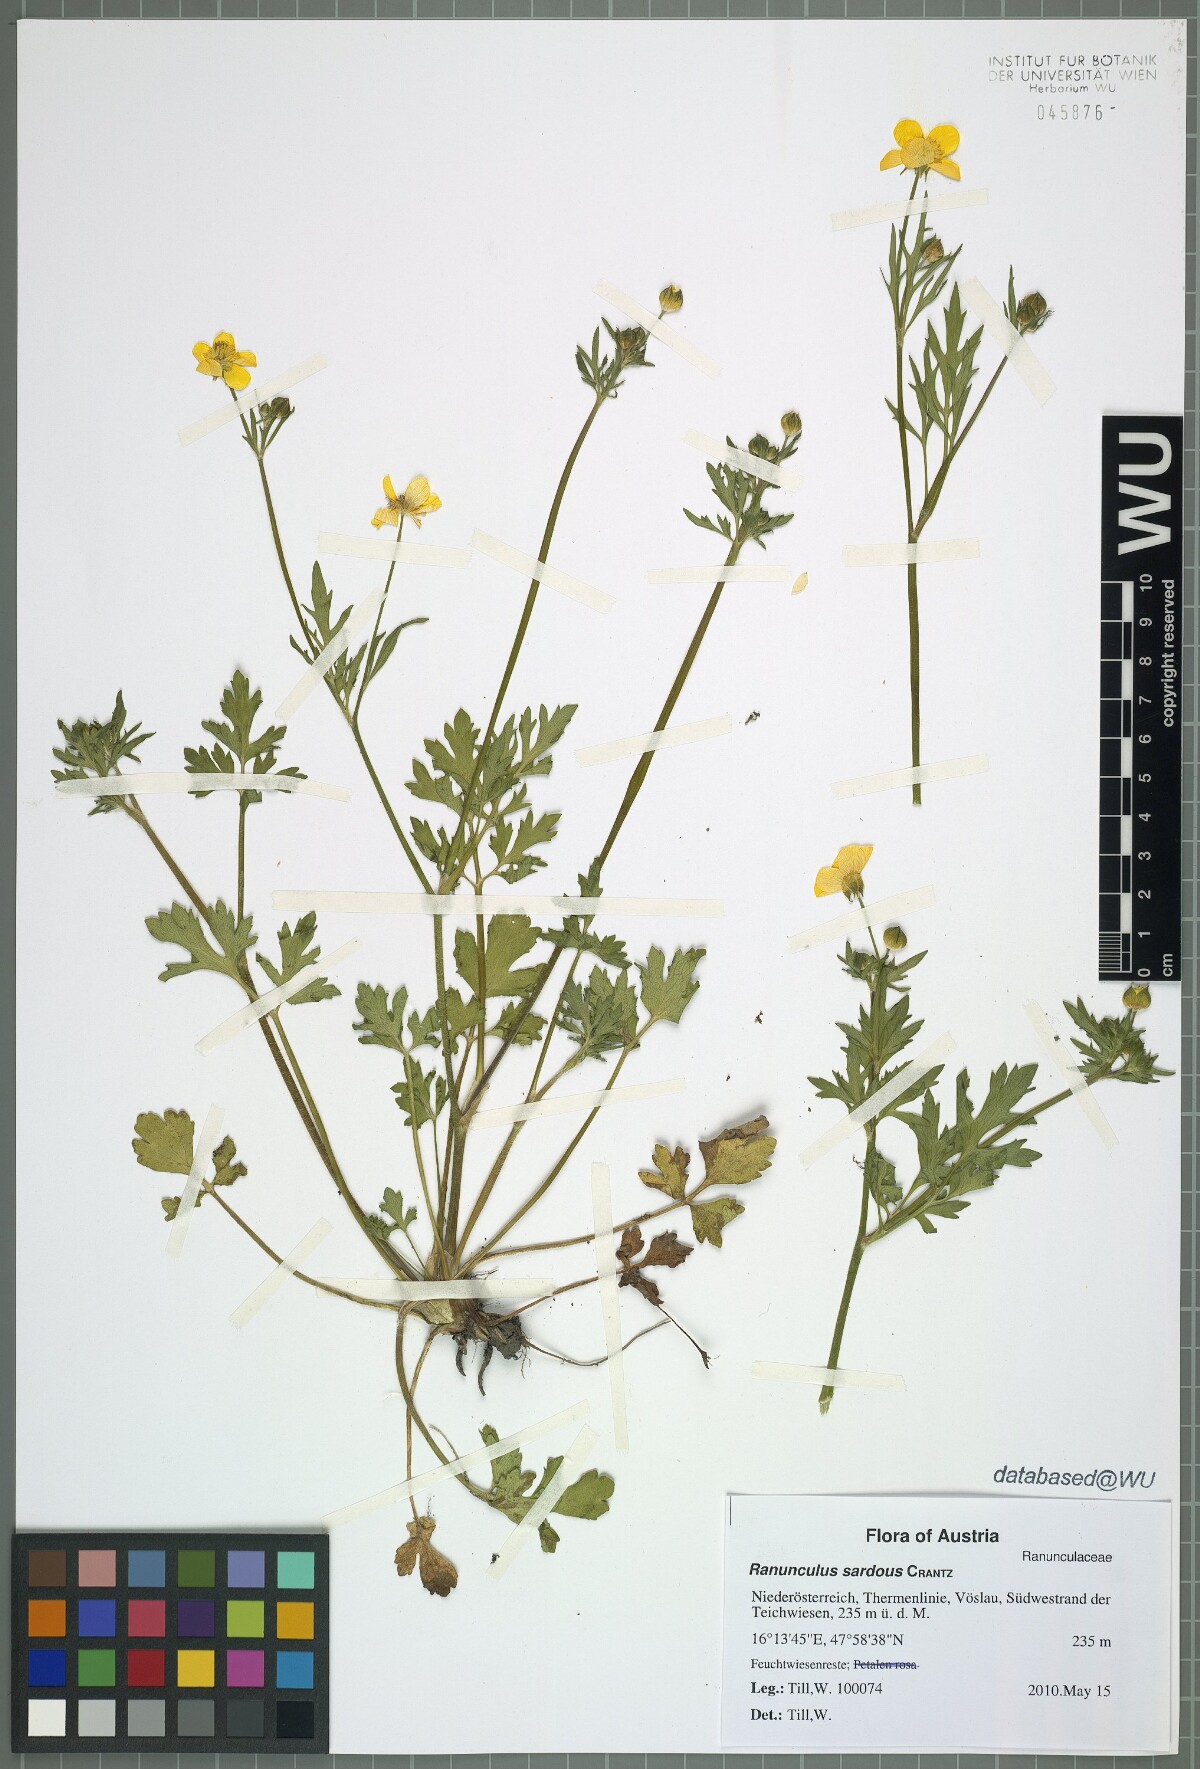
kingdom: Plantae
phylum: Tracheophyta
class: Magnoliopsida
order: Ranunculales
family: Ranunculaceae
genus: Ranunculus
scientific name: Ranunculus sardous
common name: Hairy buttercup
